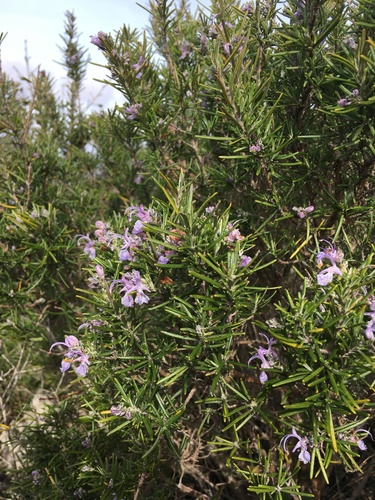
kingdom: Plantae
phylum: Tracheophyta
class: Magnoliopsida
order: Lamiales
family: Lamiaceae
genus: Salvia
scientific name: Salvia rosmarinus
